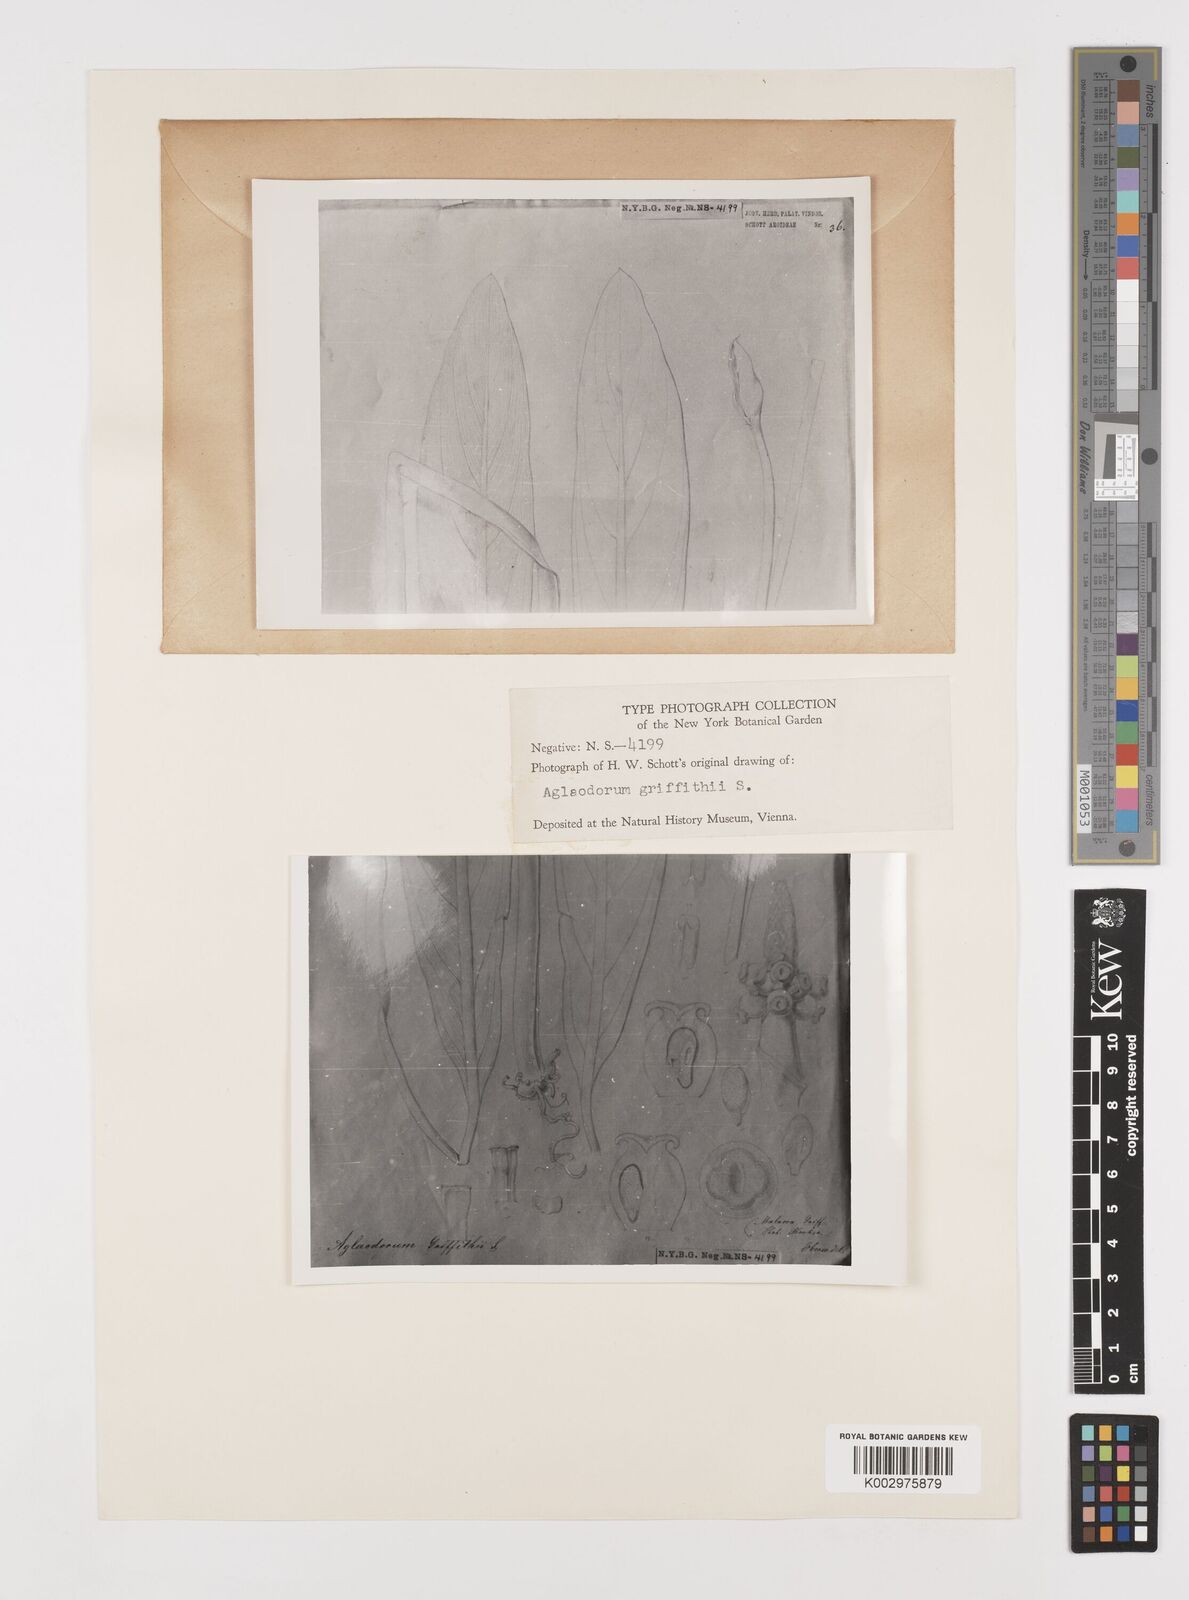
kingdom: Plantae
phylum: Tracheophyta
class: Liliopsida
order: Alismatales
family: Araceae
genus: Aglaodorum
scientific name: Aglaodorum griffithii
